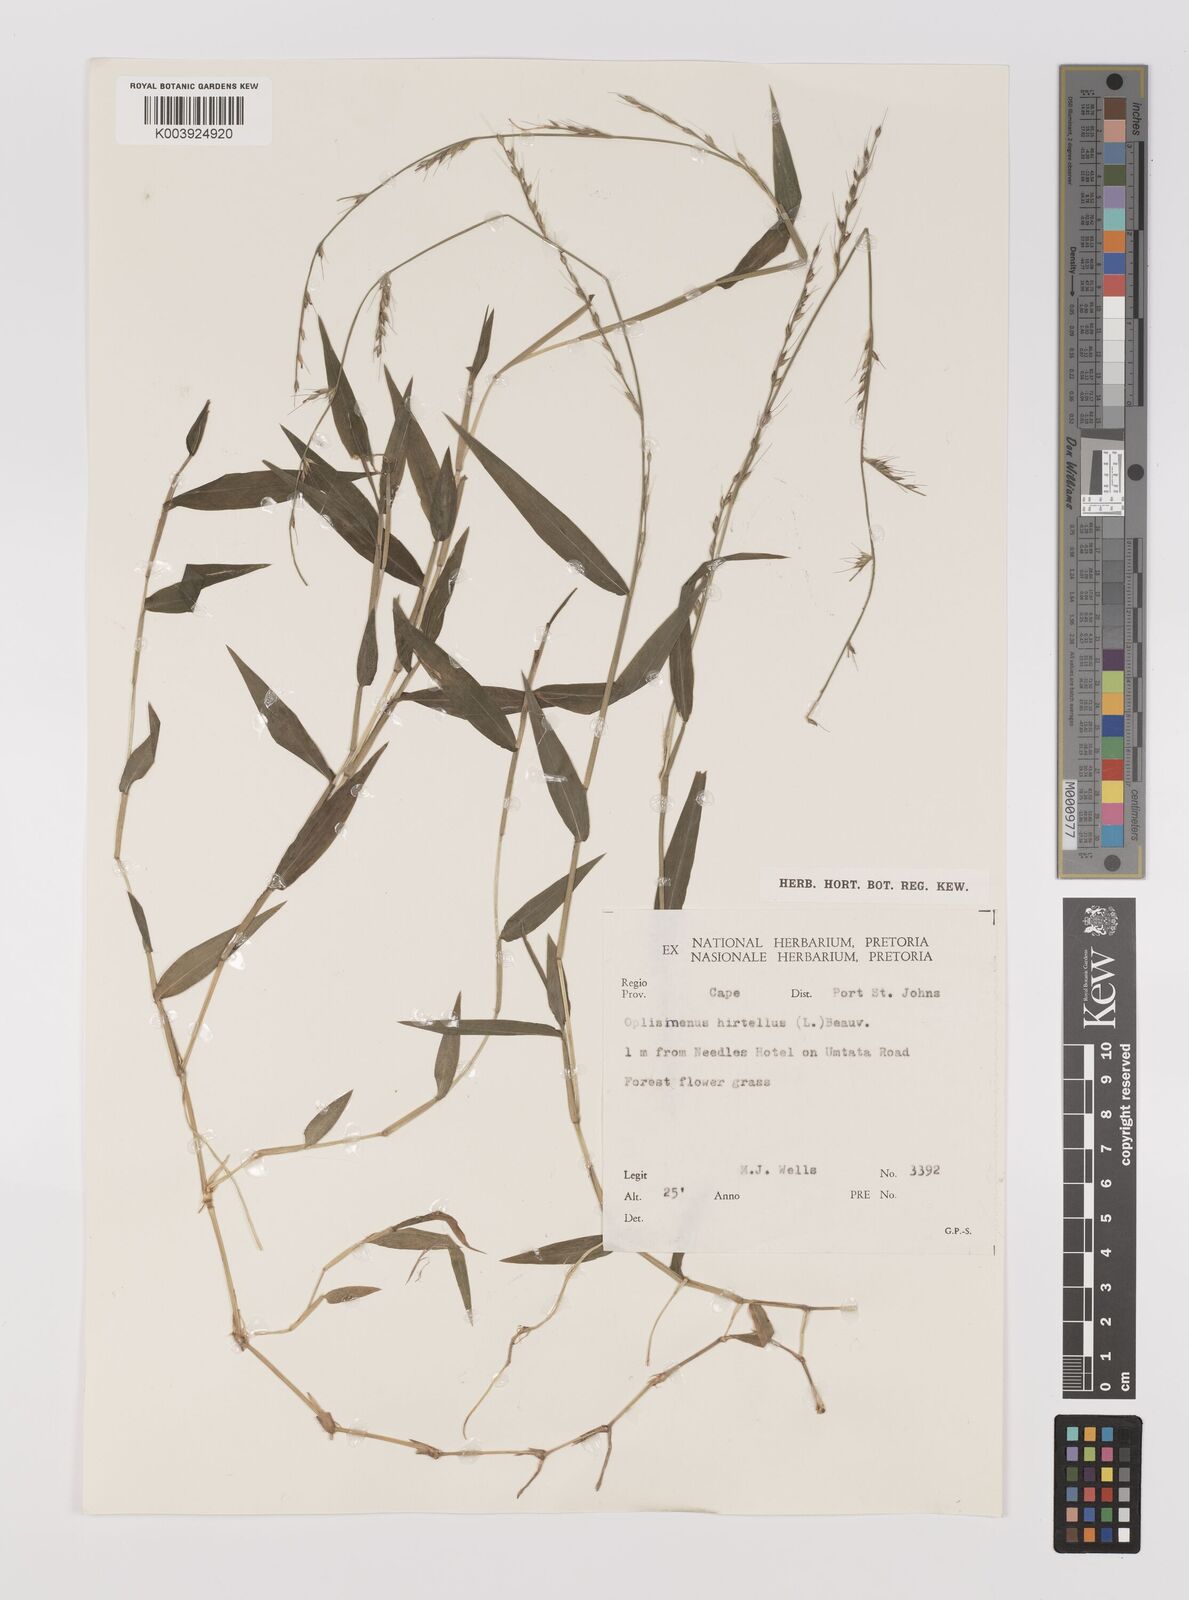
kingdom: Plantae
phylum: Tracheophyta
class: Liliopsida
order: Poales
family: Poaceae
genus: Oplismenus
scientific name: Oplismenus compositus
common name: Running mountain grass
